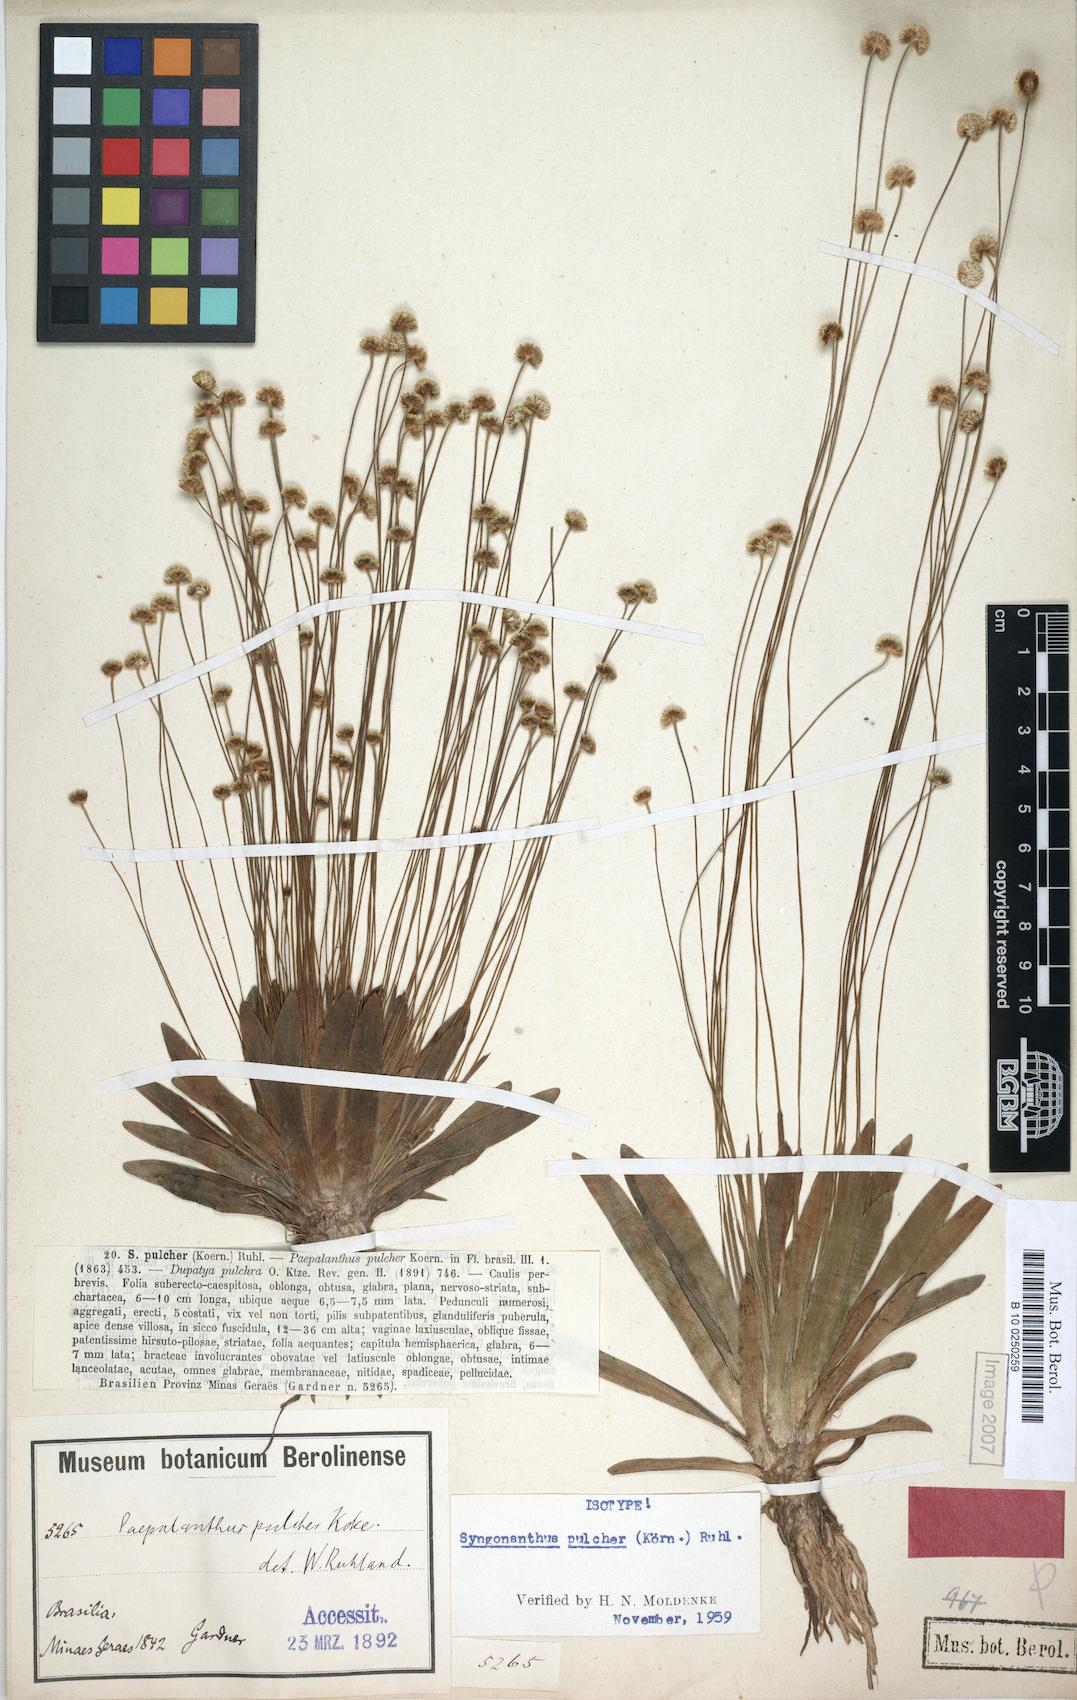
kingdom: Plantae
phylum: Tracheophyta
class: Liliopsida
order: Poales
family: Eriocaulaceae
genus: Syngonanthus
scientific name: Syngonanthus pulcher
